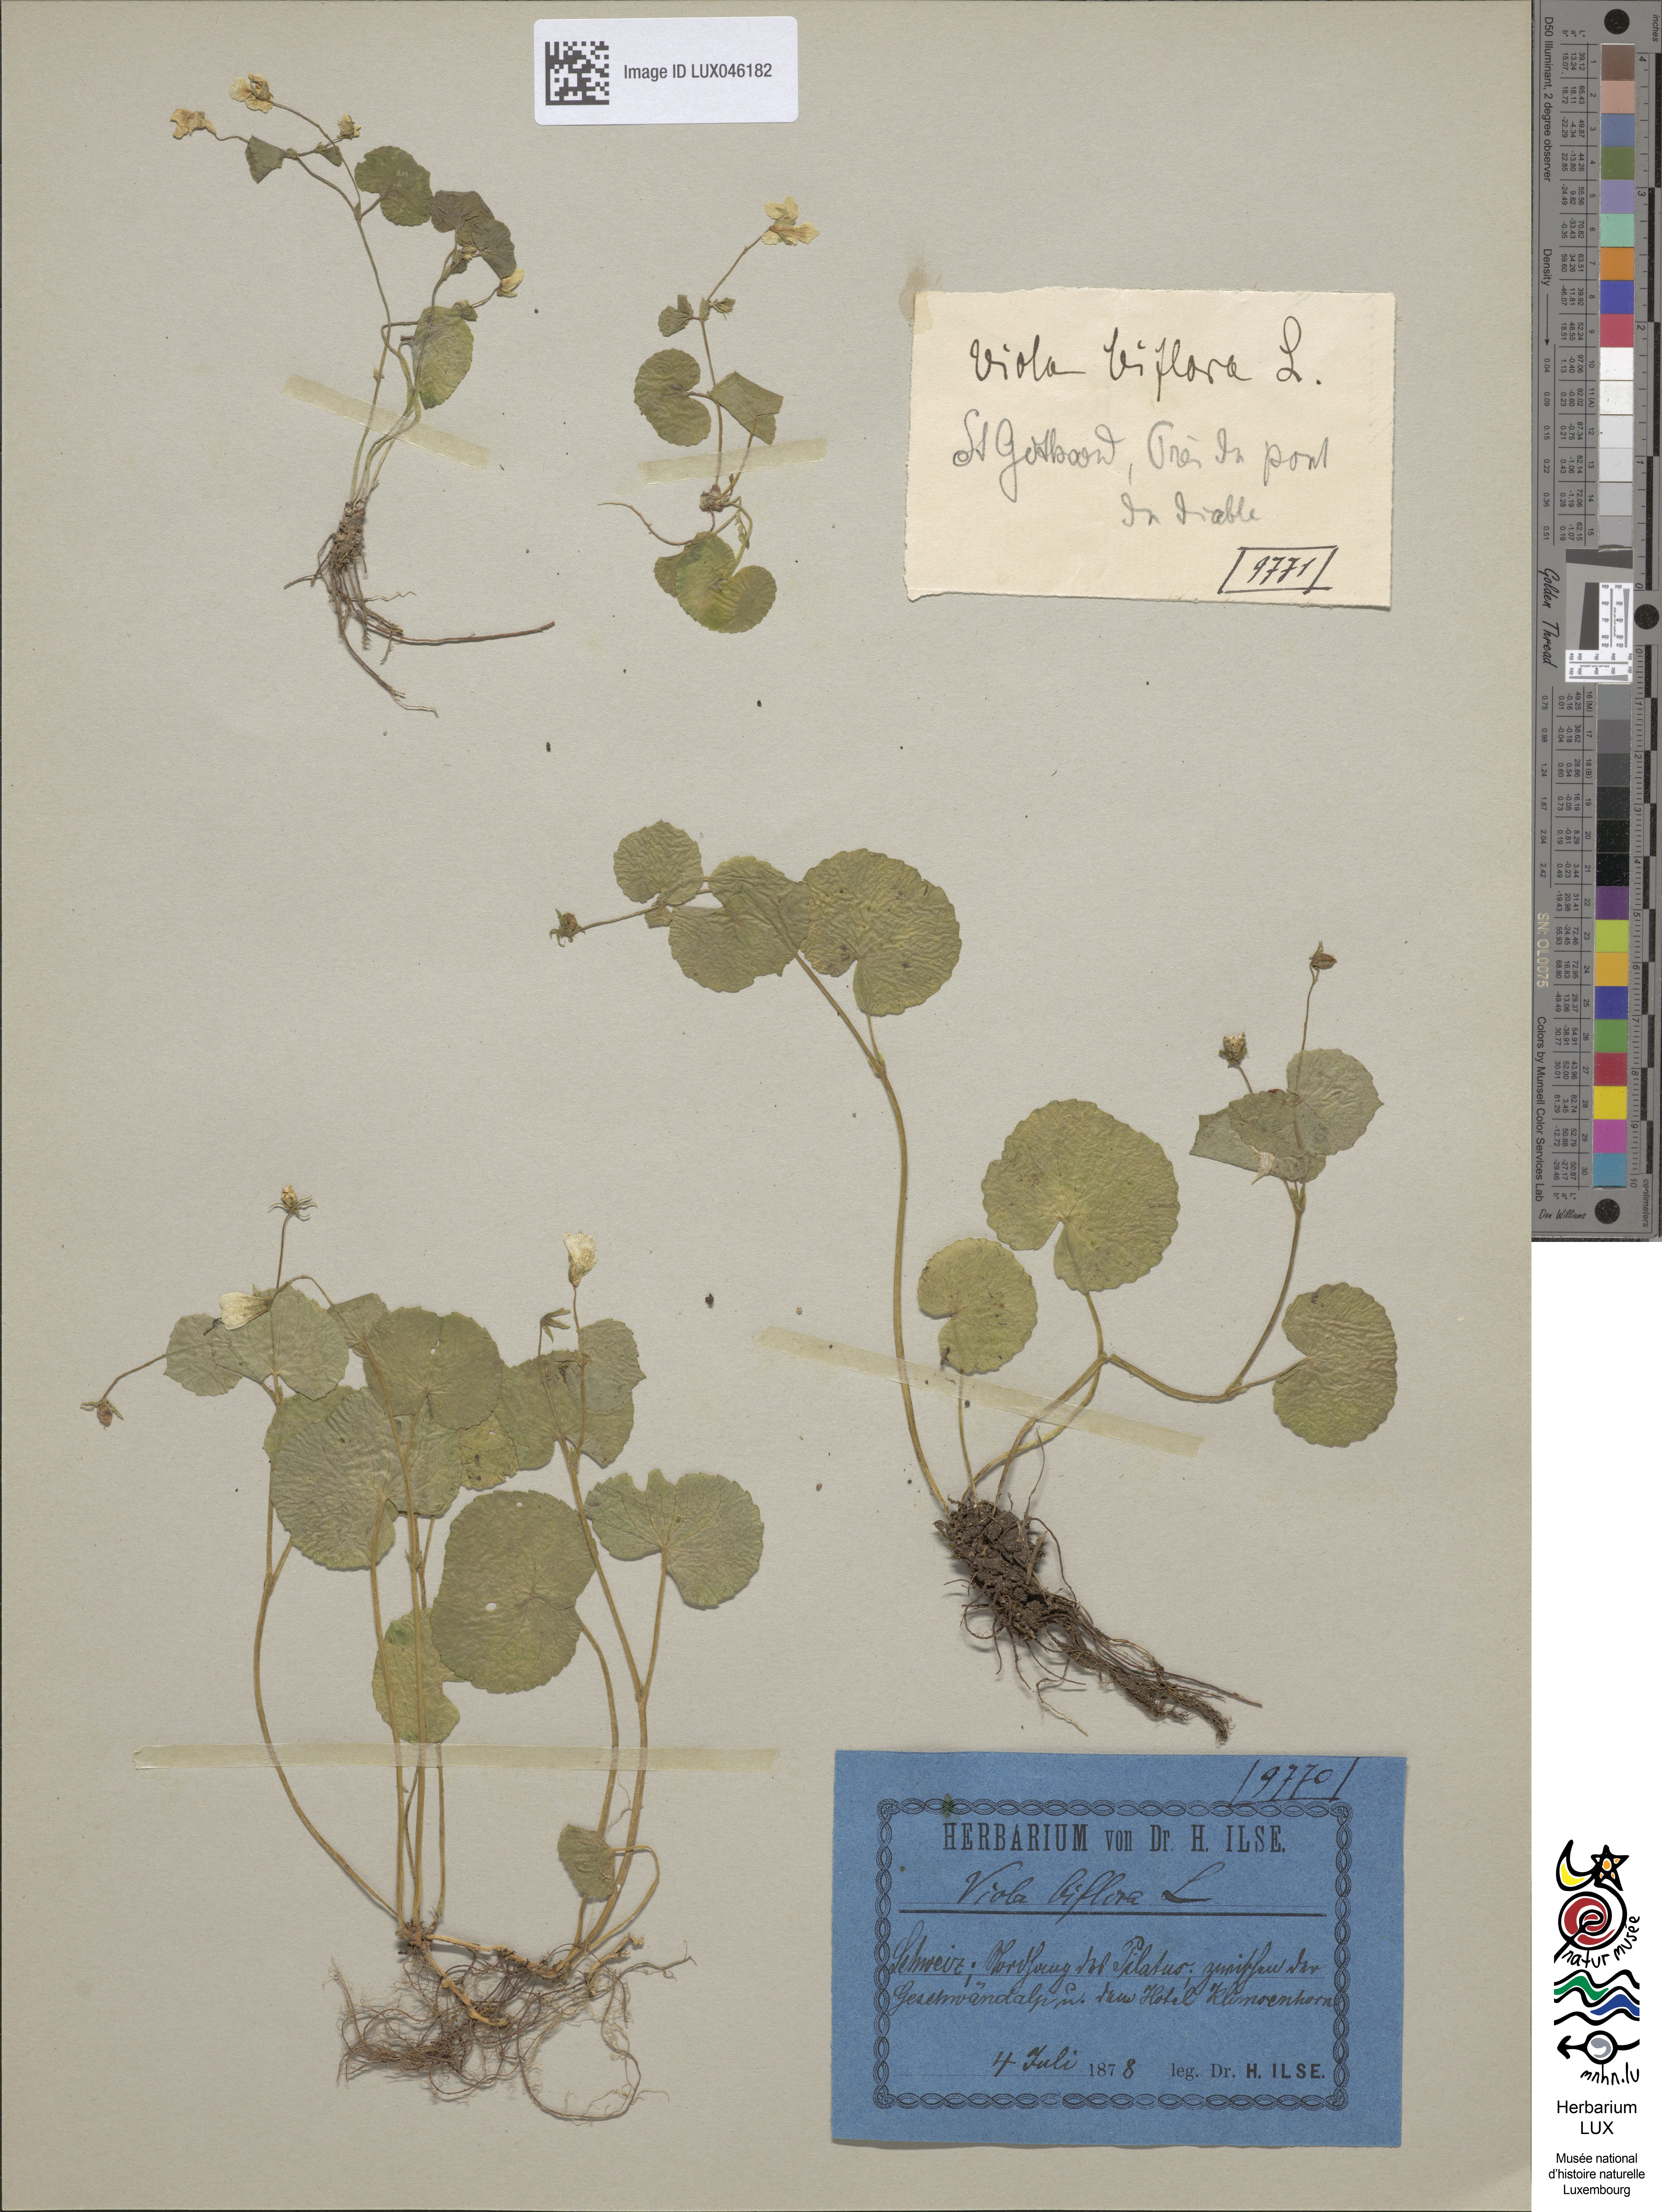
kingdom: Plantae
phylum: Tracheophyta
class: Magnoliopsida
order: Malpighiales
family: Violaceae
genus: Viola
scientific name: Viola biflora
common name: Alpine yellow violet
